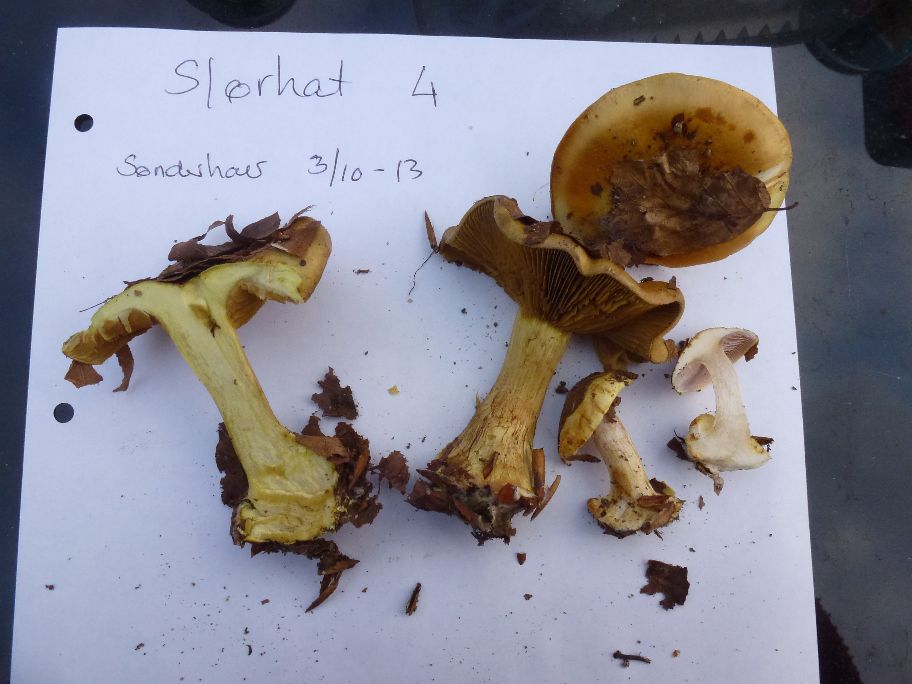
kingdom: Fungi
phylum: Basidiomycota
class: Agaricomycetes
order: Agaricales
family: Cortinariaceae
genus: Calonarius
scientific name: Calonarius citrinus
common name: citrongul slørhat
